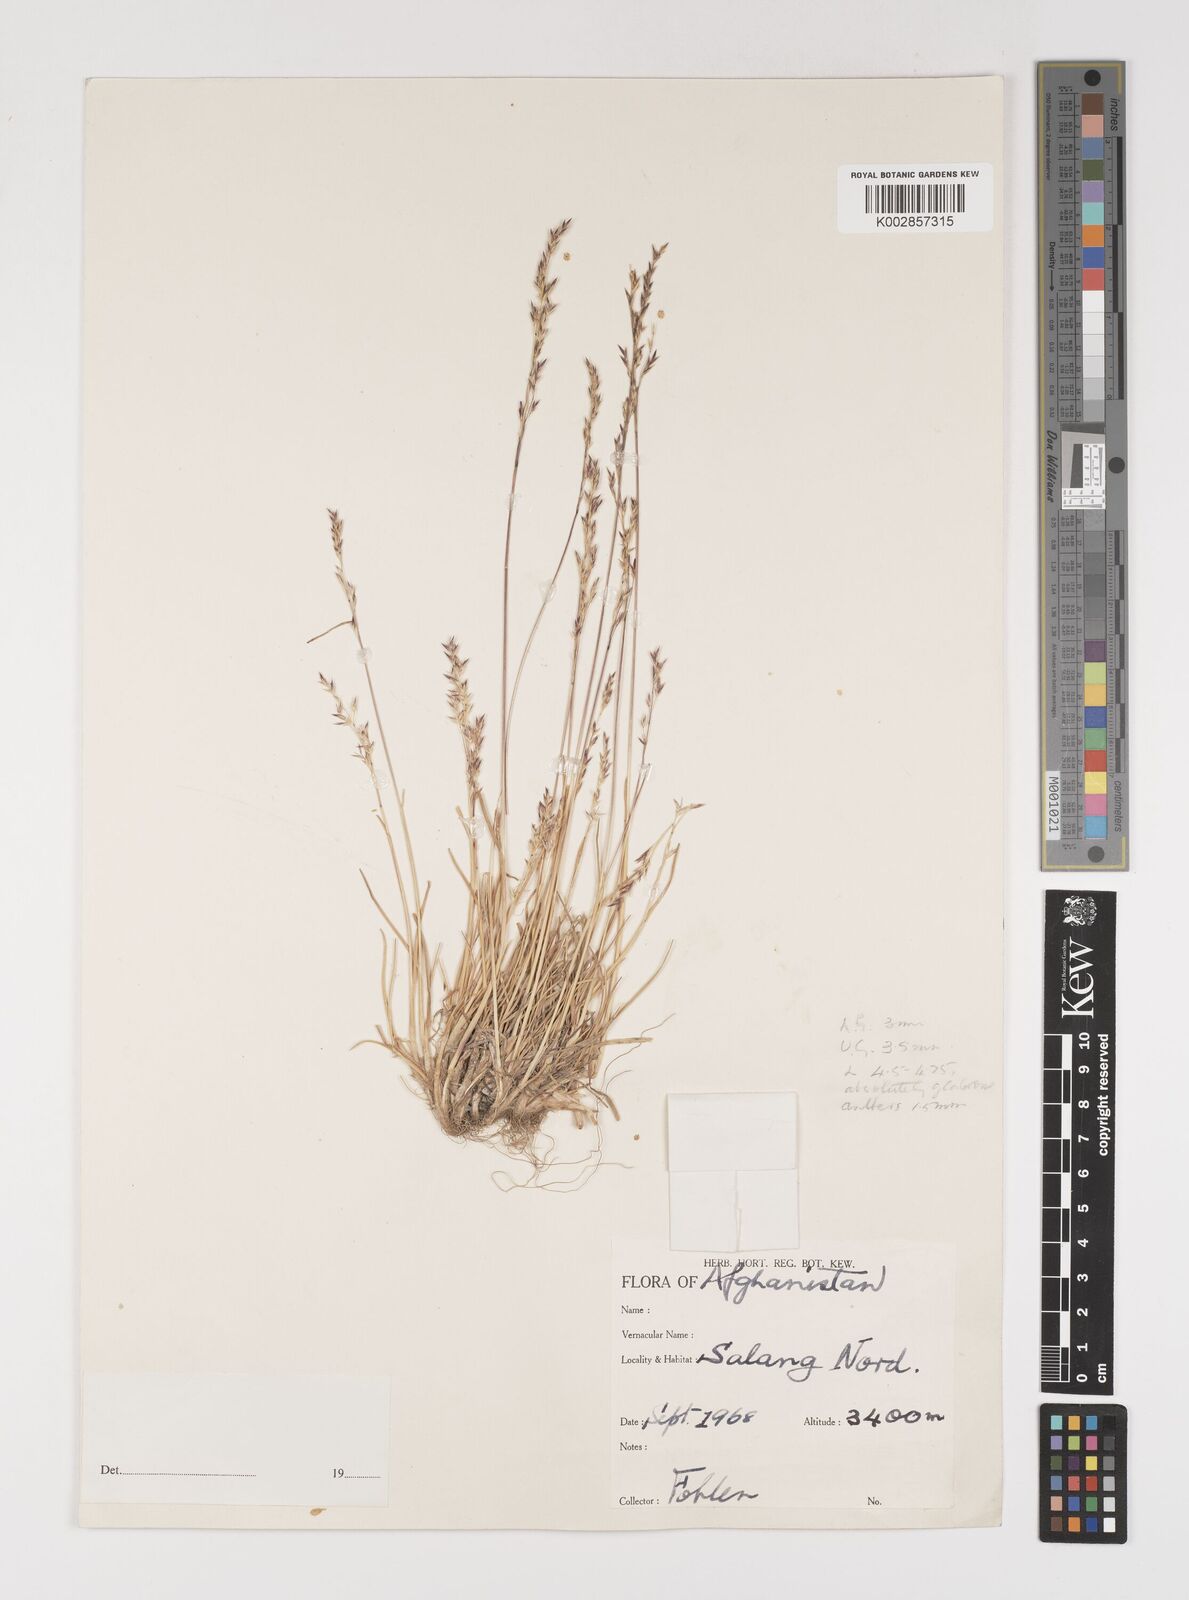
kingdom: Plantae
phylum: Tracheophyta
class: Liliopsida
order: Poales
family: Poaceae
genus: Puccinellia
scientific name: Puccinellia
